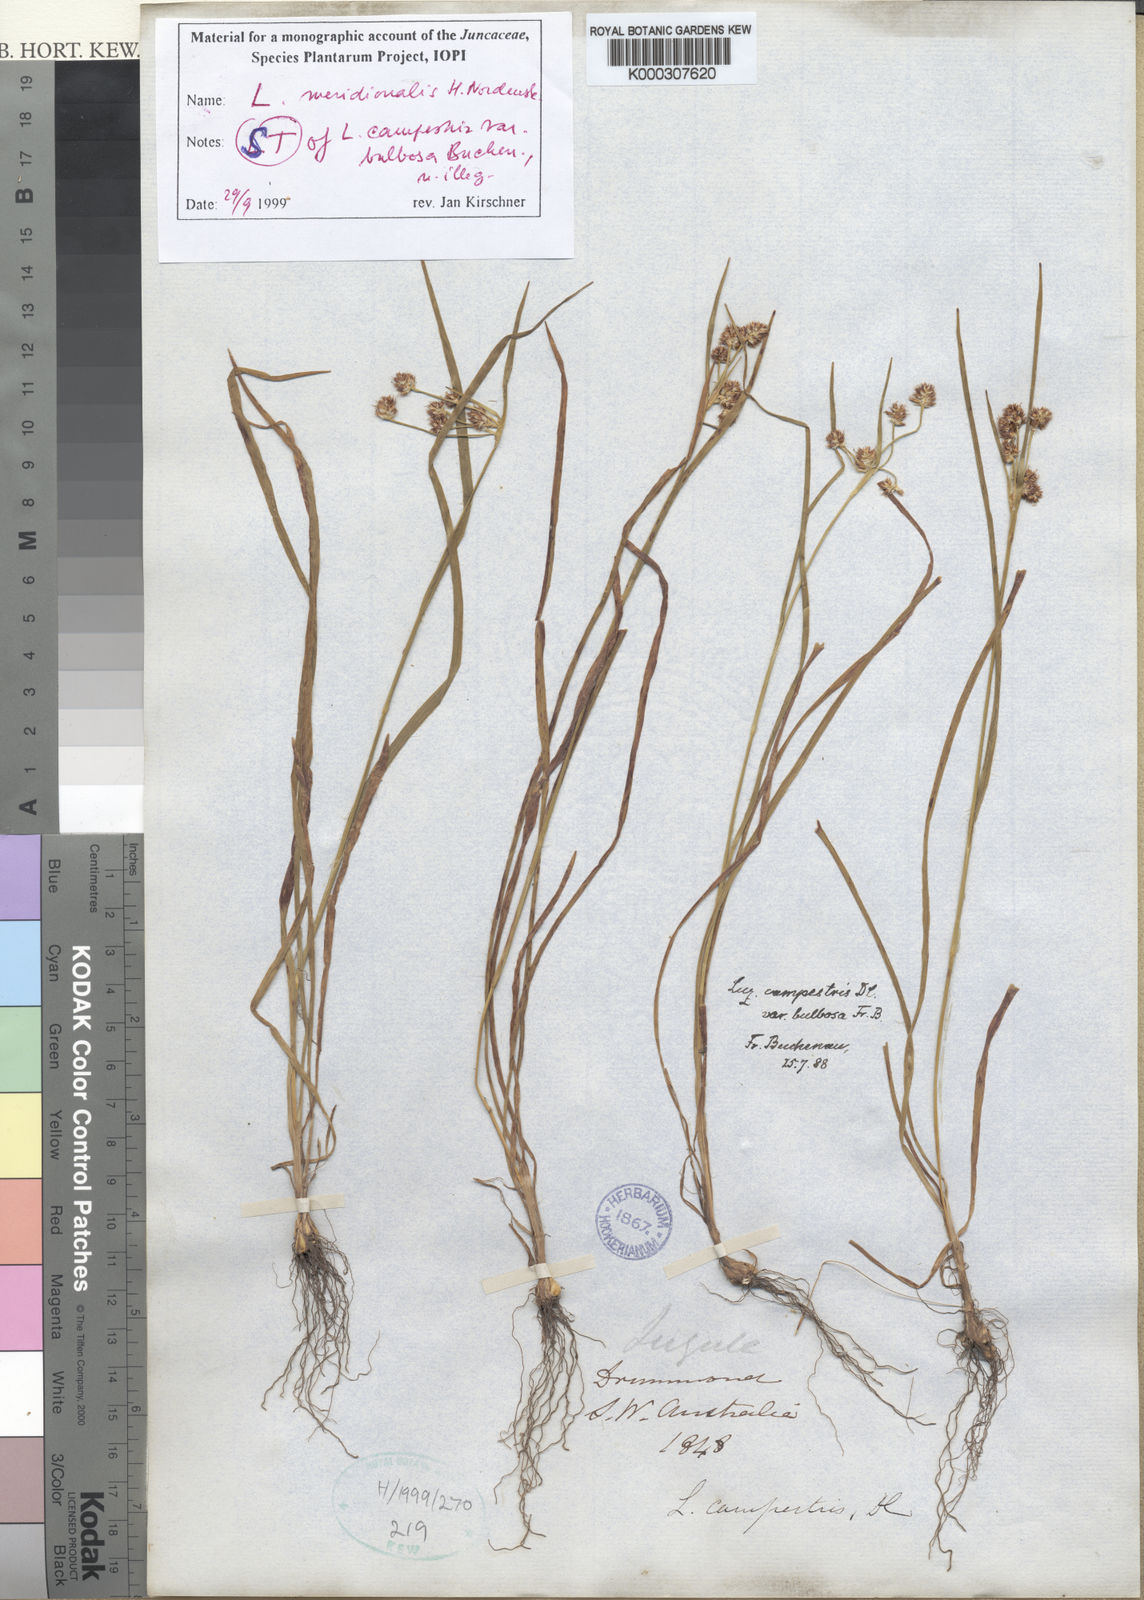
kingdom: Plantae
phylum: Tracheophyta
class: Liliopsida
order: Poales
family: Juncaceae
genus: Luzula
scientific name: Luzula meridionalis
